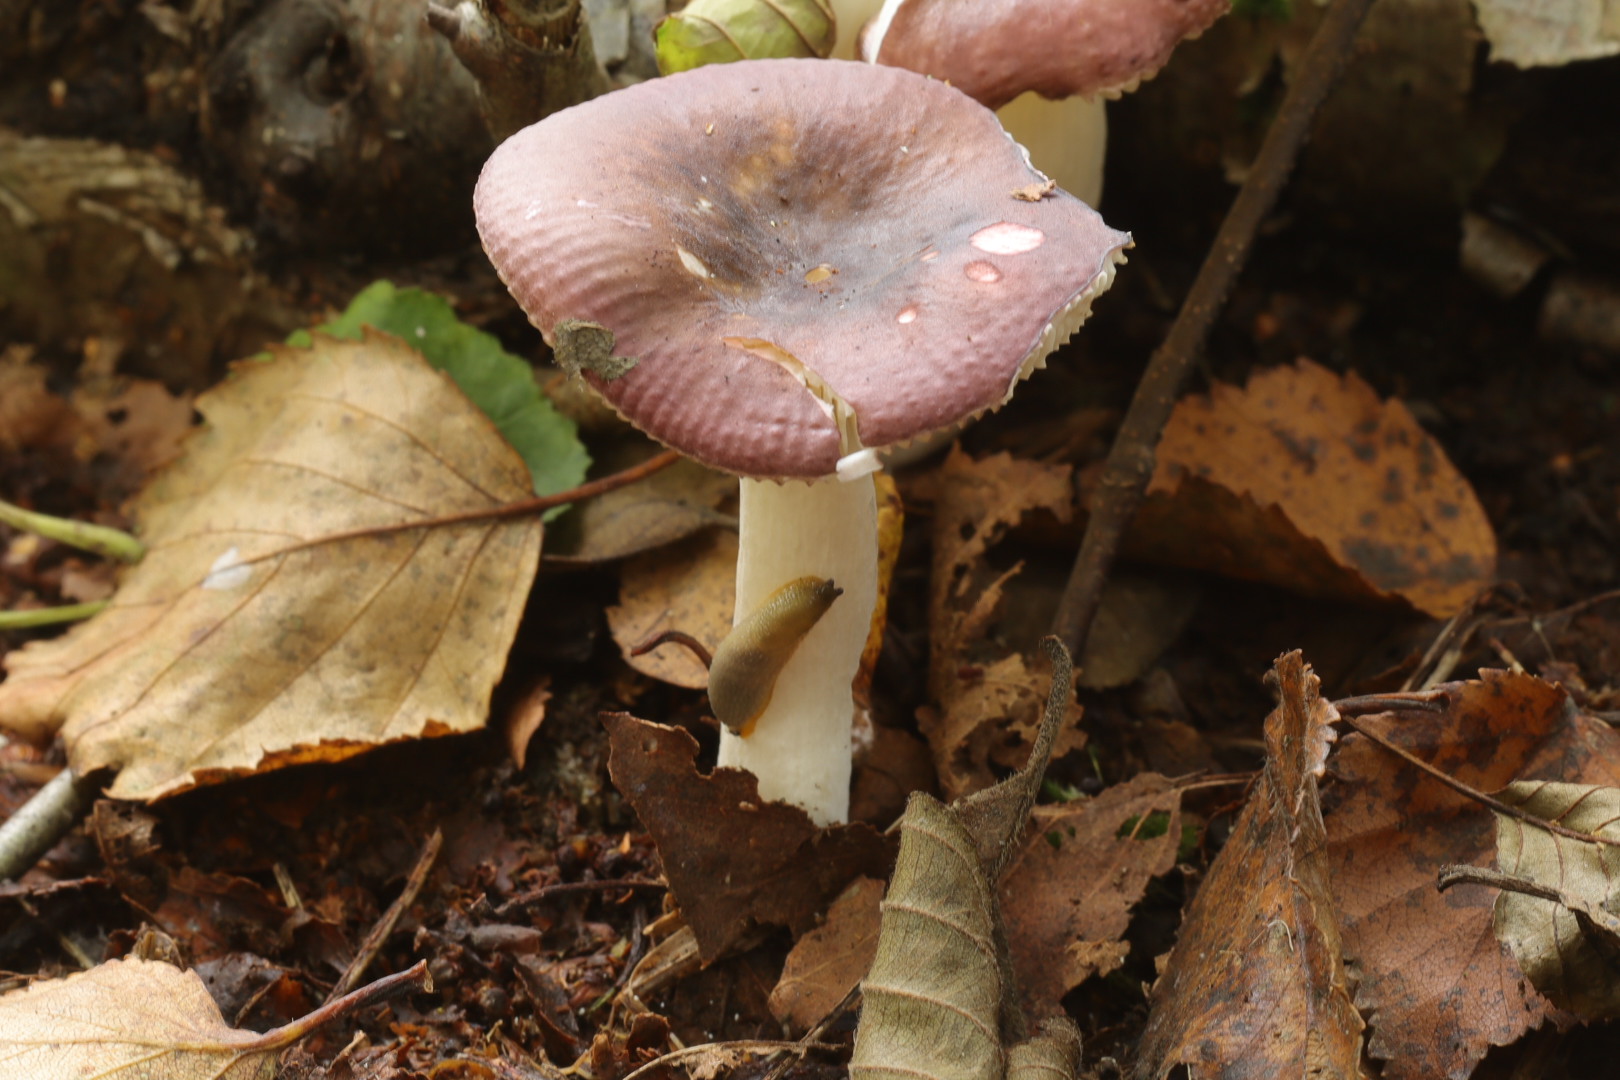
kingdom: Fungi
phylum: Basidiomycota
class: Agaricomycetes
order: Russulales
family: Russulaceae
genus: Russula
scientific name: Russula nitida
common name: året skørhat
